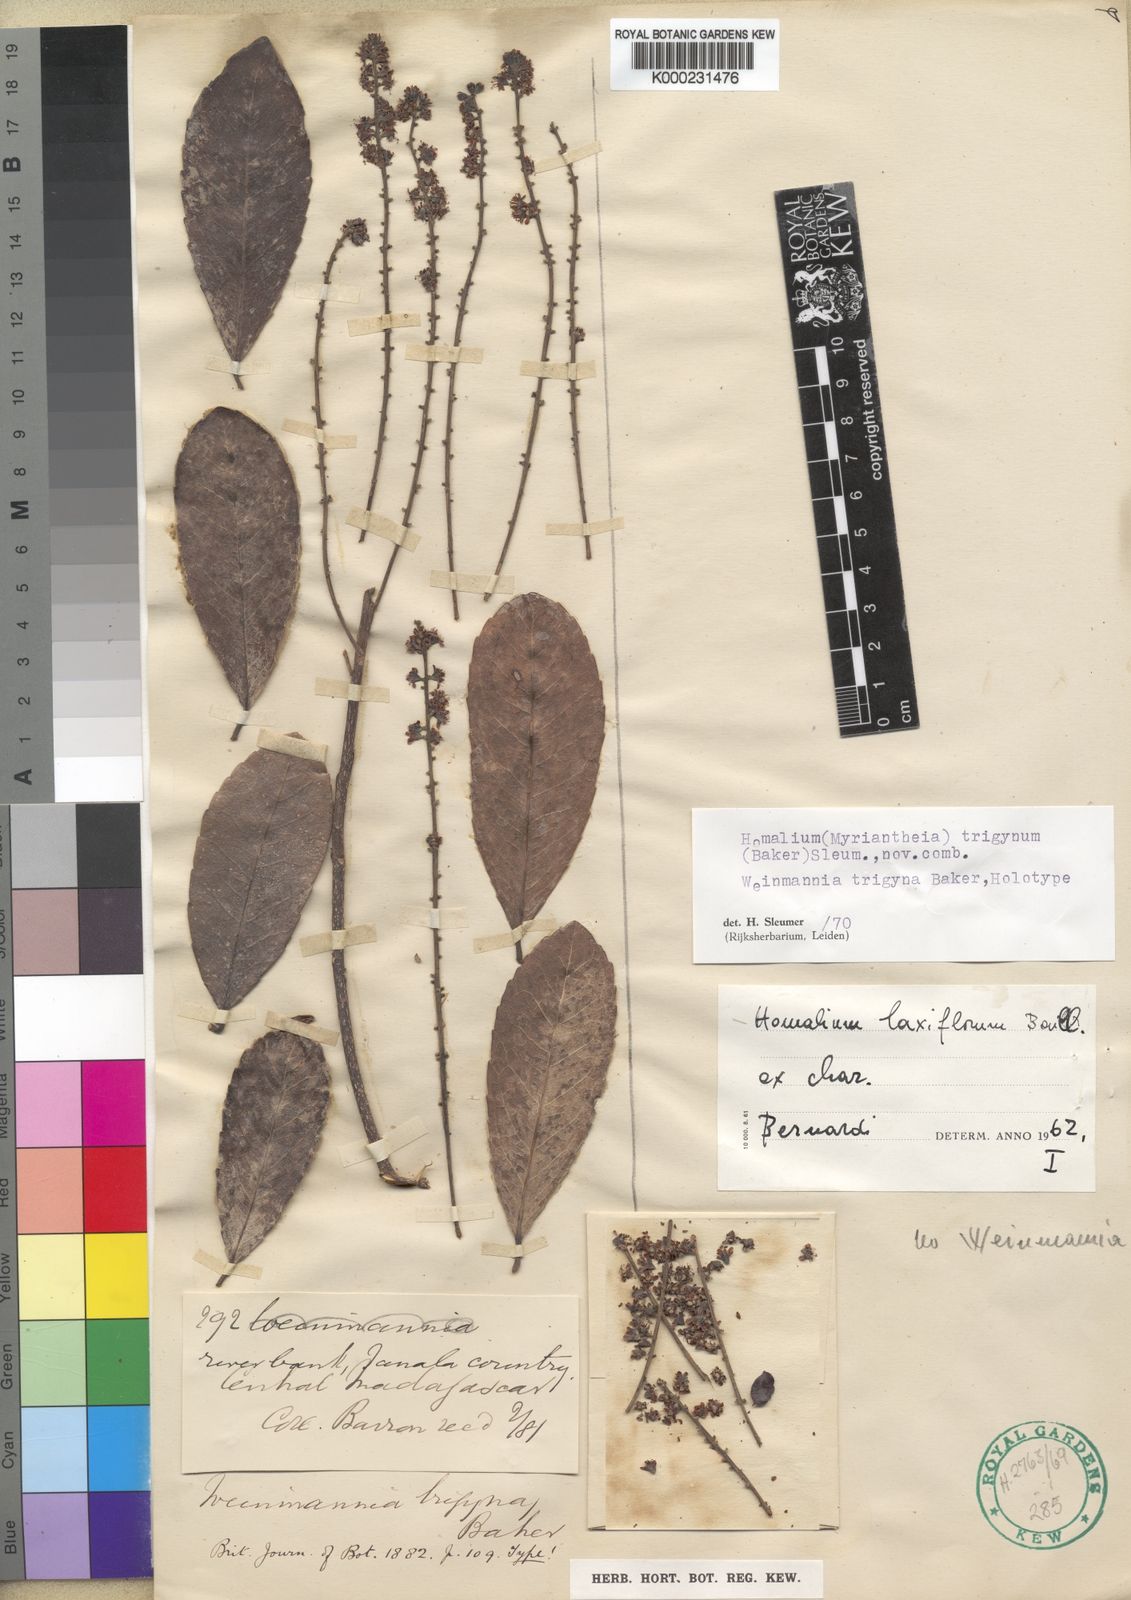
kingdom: Plantae
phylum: Tracheophyta
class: Magnoliopsida
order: Malpighiales
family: Salicaceae
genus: Homalium
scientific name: Homalium laxiflorum
